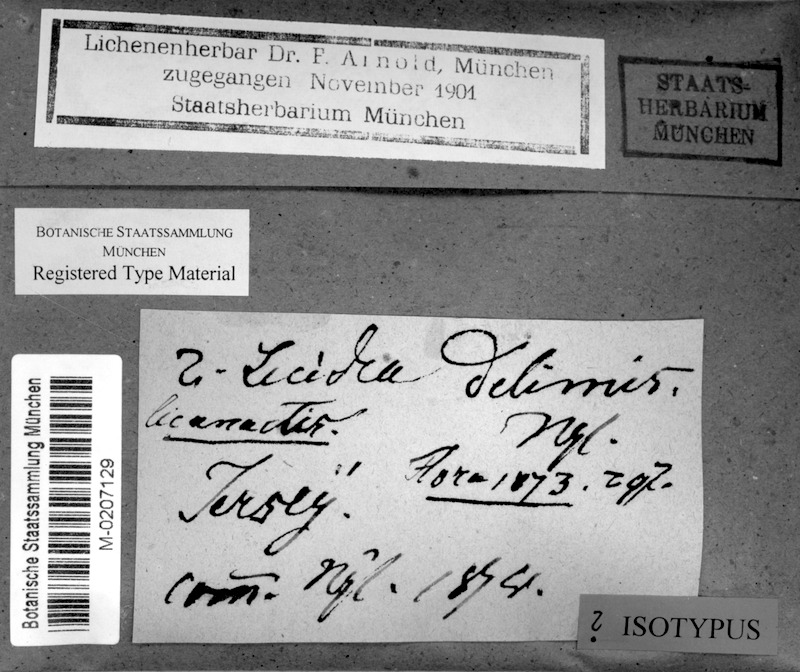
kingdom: Fungi
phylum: Ascomycota
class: Arthoniomycetes
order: Arthoniales
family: Roccellaceae
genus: Paralecanographa
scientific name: Paralecanographa grumulosa
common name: Churchyard lecanactis
